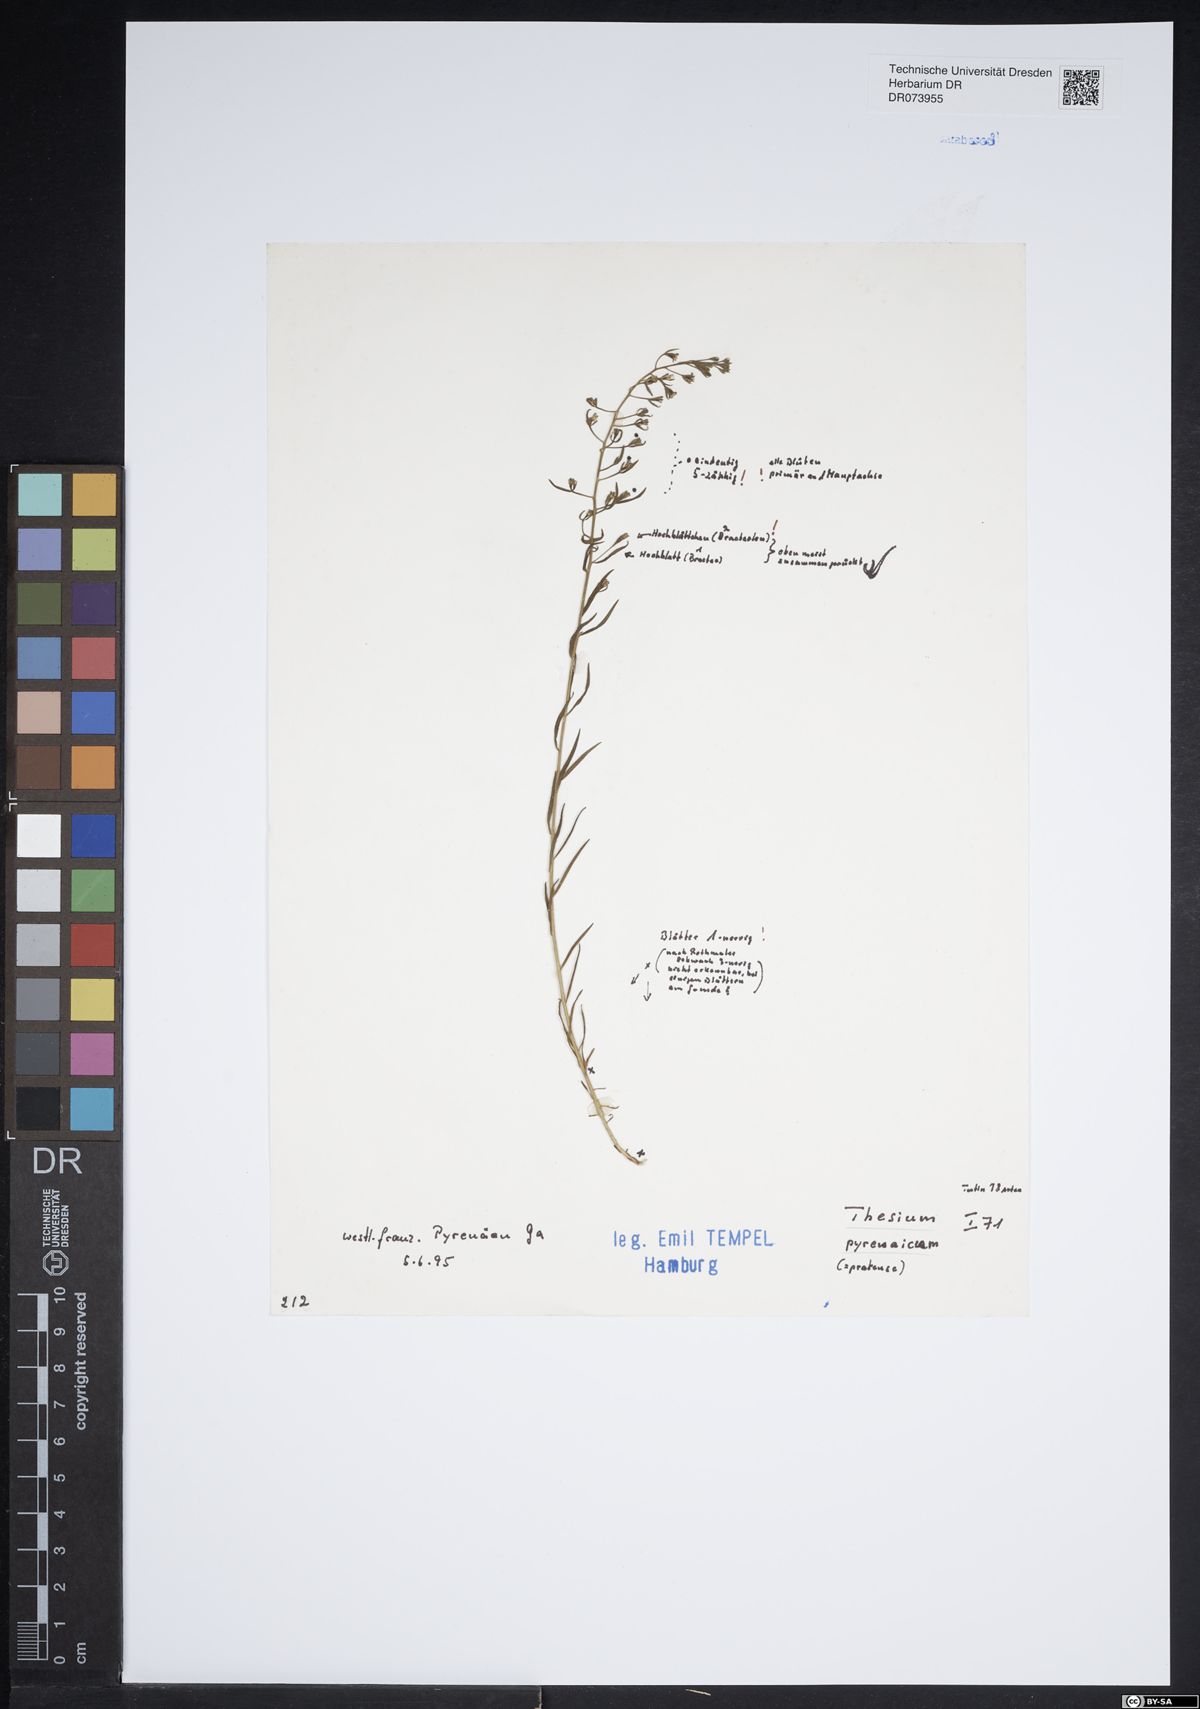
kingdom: Plantae
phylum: Tracheophyta
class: Magnoliopsida
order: Santalales
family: Thesiaceae
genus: Thesium
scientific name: Thesium pyrenaicum
